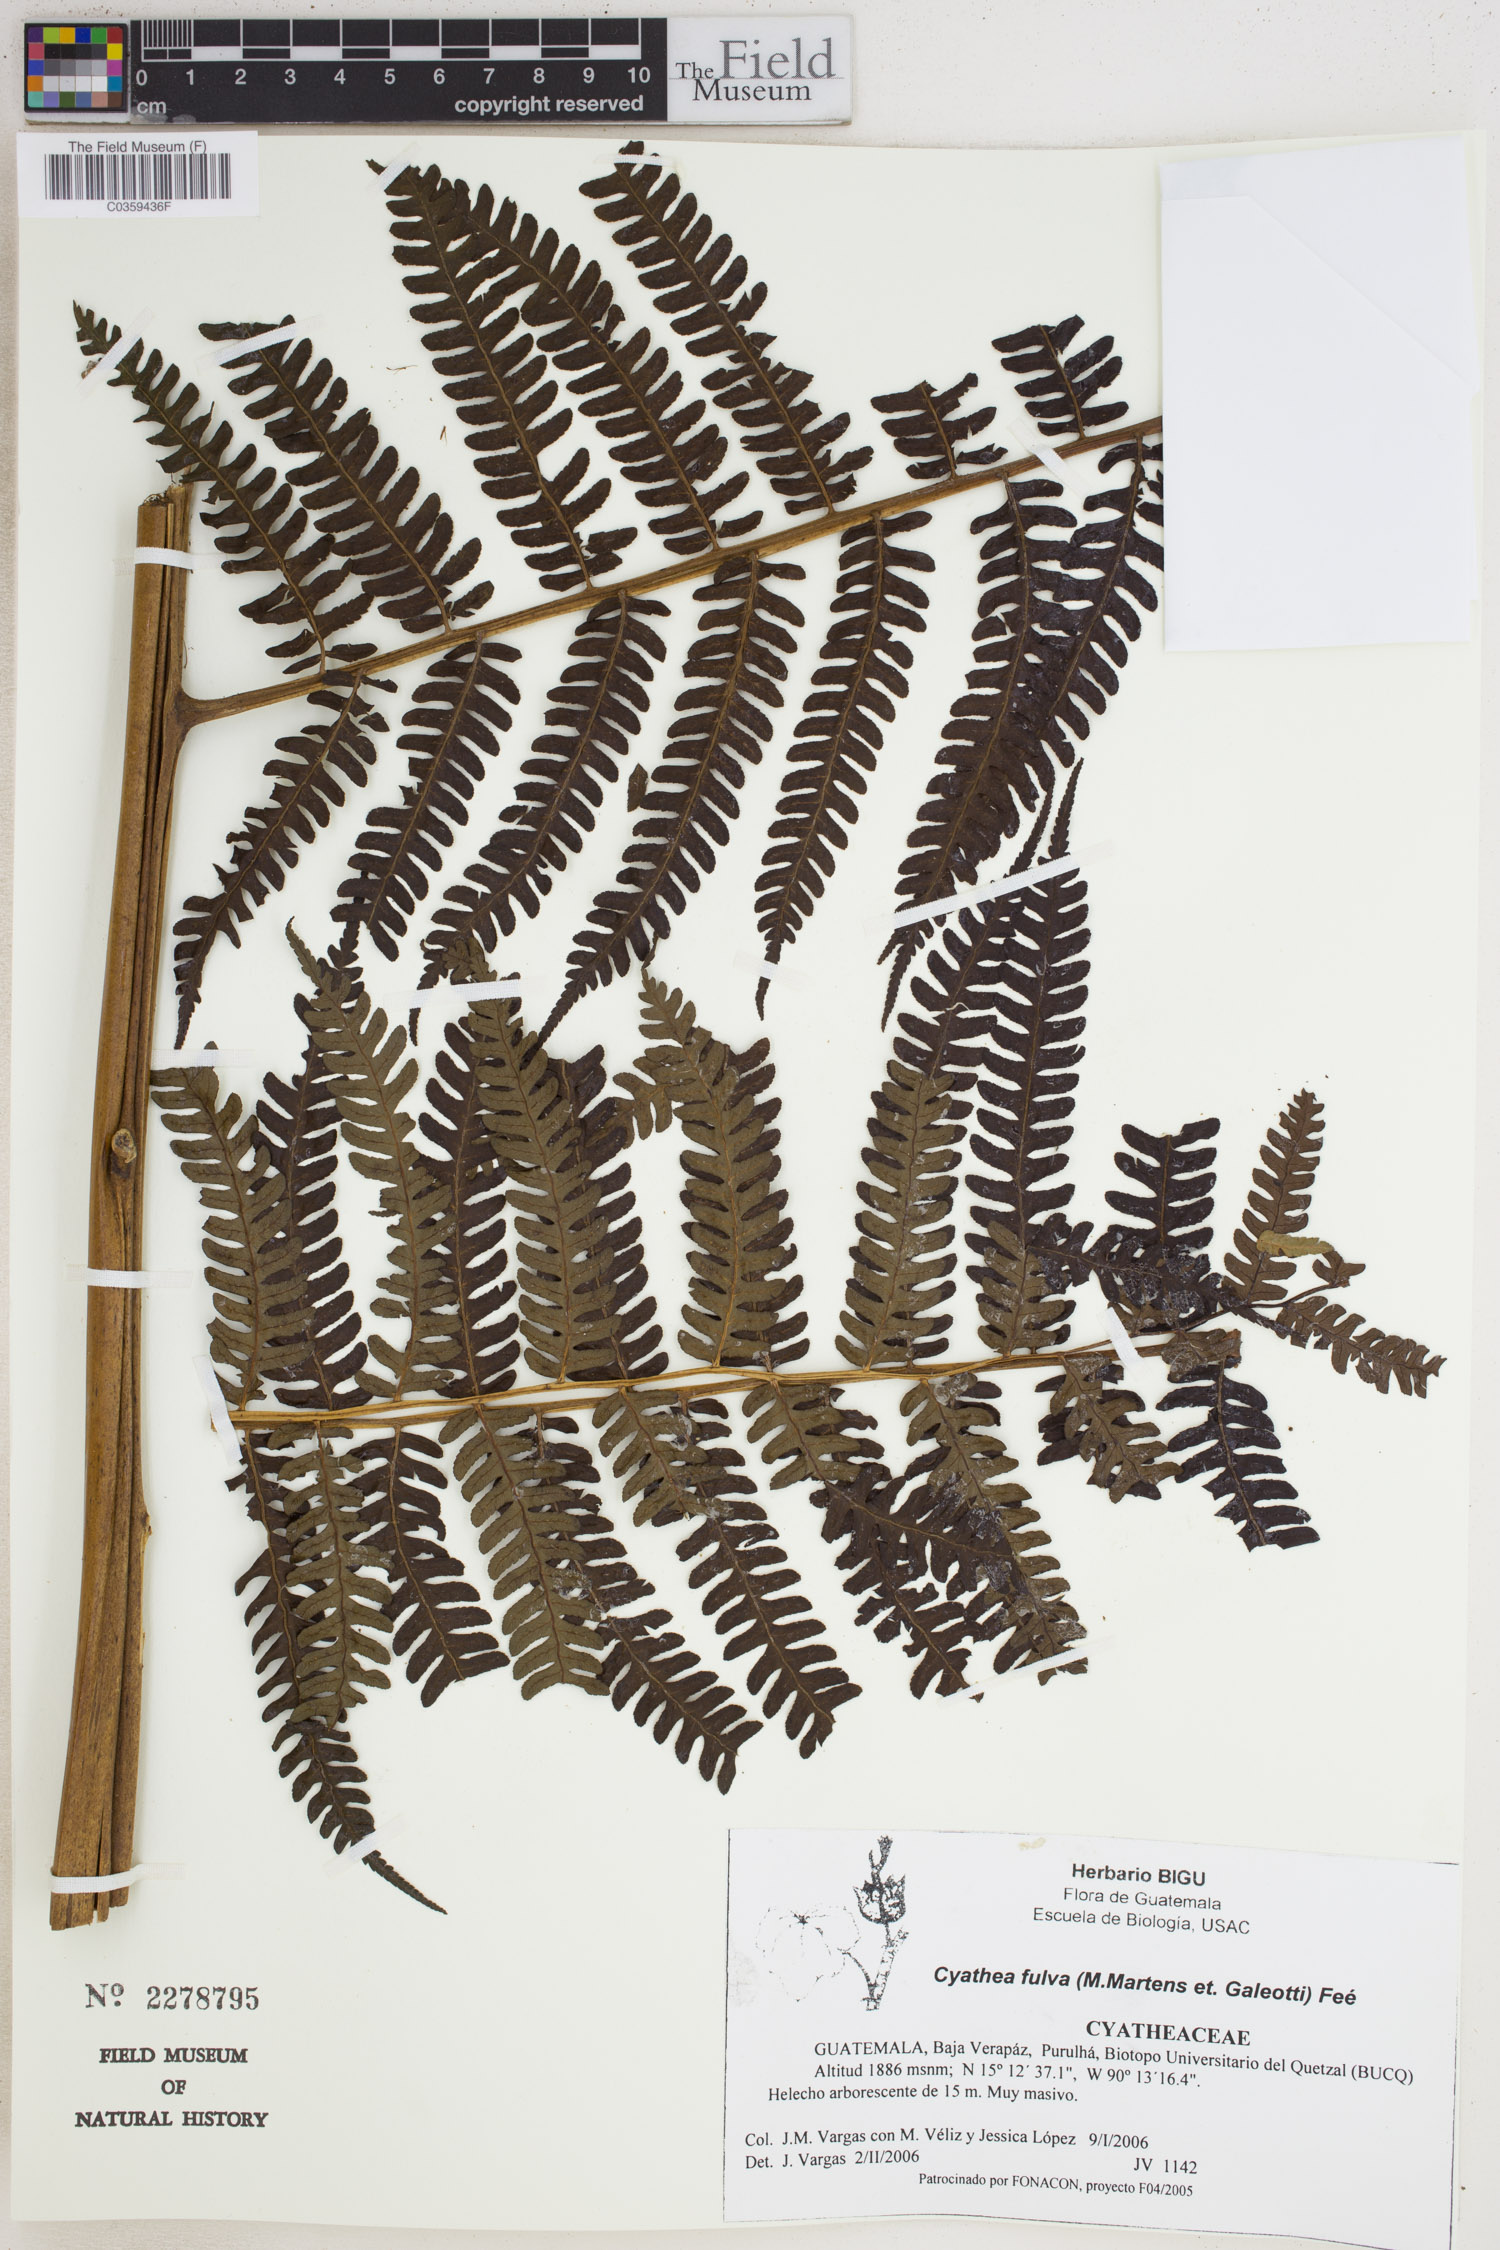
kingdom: Plantae
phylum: Tracheophyta
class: Polypodiopsida
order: Cyatheales
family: Cyatheaceae
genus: Cyathea
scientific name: Cyathea fulva
